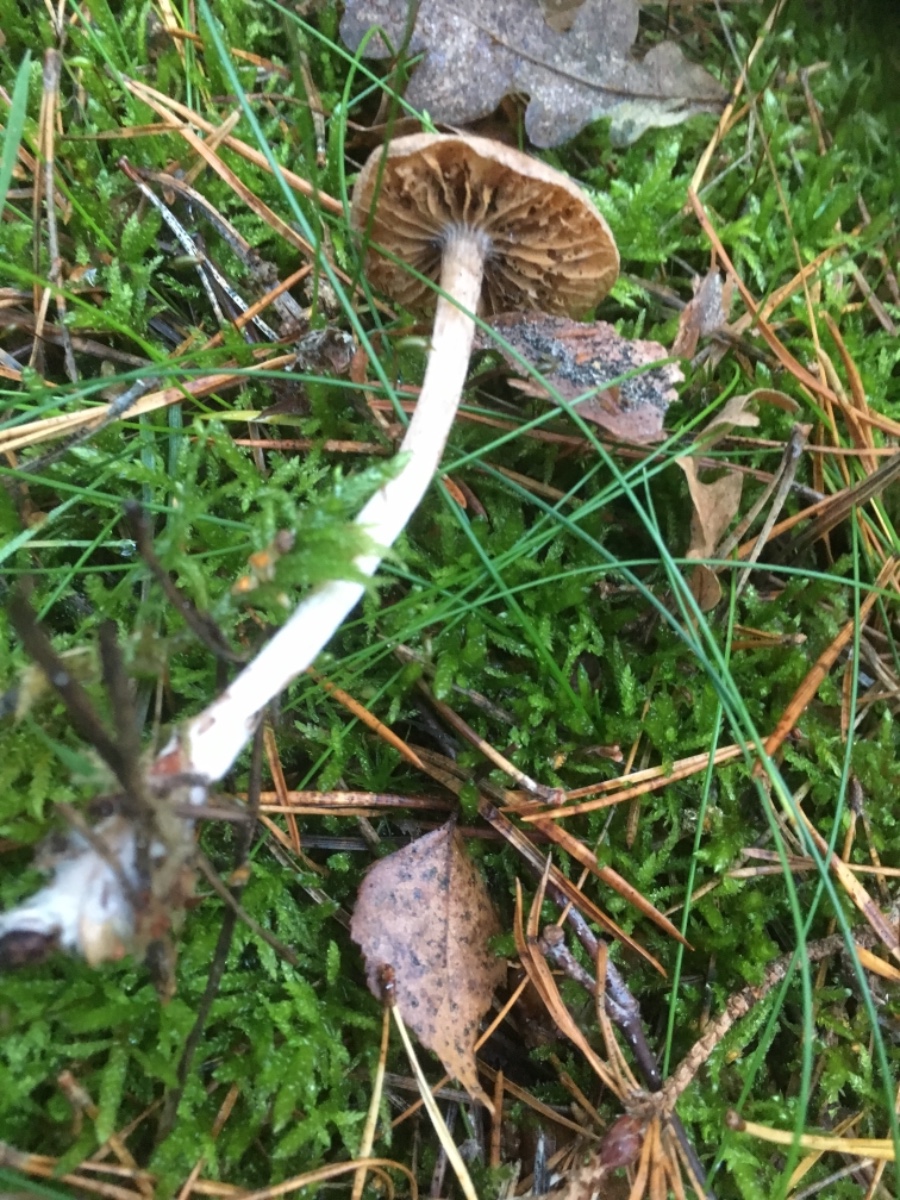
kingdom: Fungi
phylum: Basidiomycota
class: Agaricomycetes
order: Agaricales
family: Cortinariaceae
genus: Cortinarius
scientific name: Cortinarius
